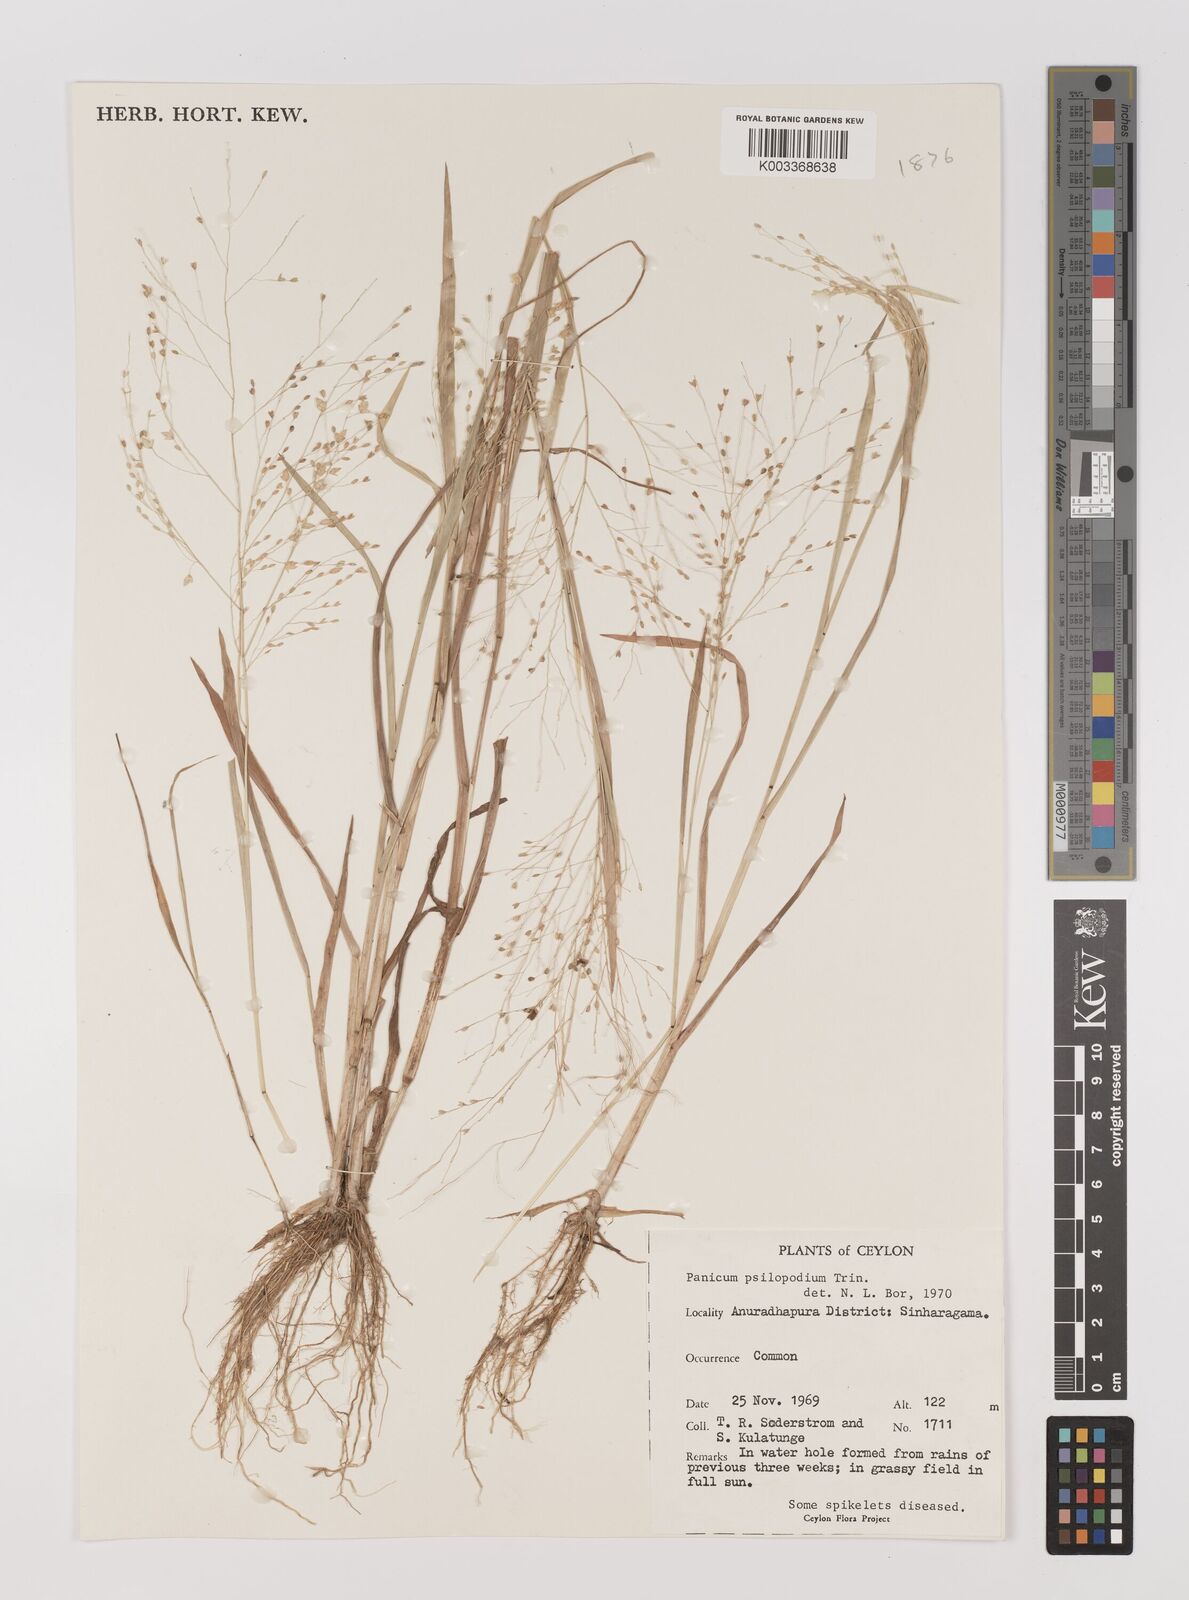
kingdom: Plantae
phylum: Tracheophyta
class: Liliopsida
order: Poales
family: Poaceae
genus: Panicum
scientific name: Panicum sumatrense
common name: Little millet
